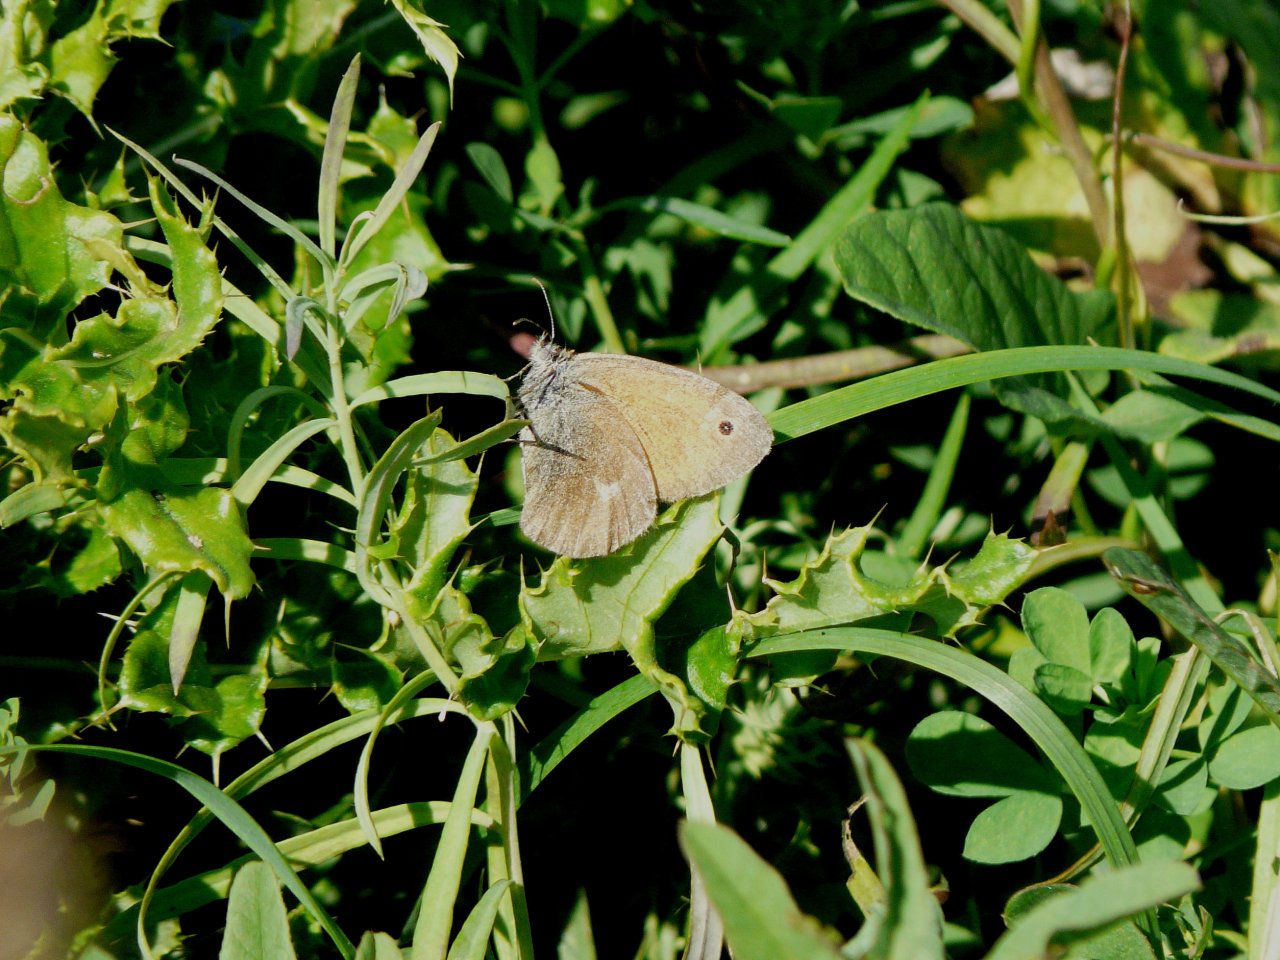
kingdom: Animalia
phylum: Arthropoda
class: Insecta
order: Lepidoptera
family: Nymphalidae
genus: Coenonympha
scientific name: Coenonympha tullia
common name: Large Heath
